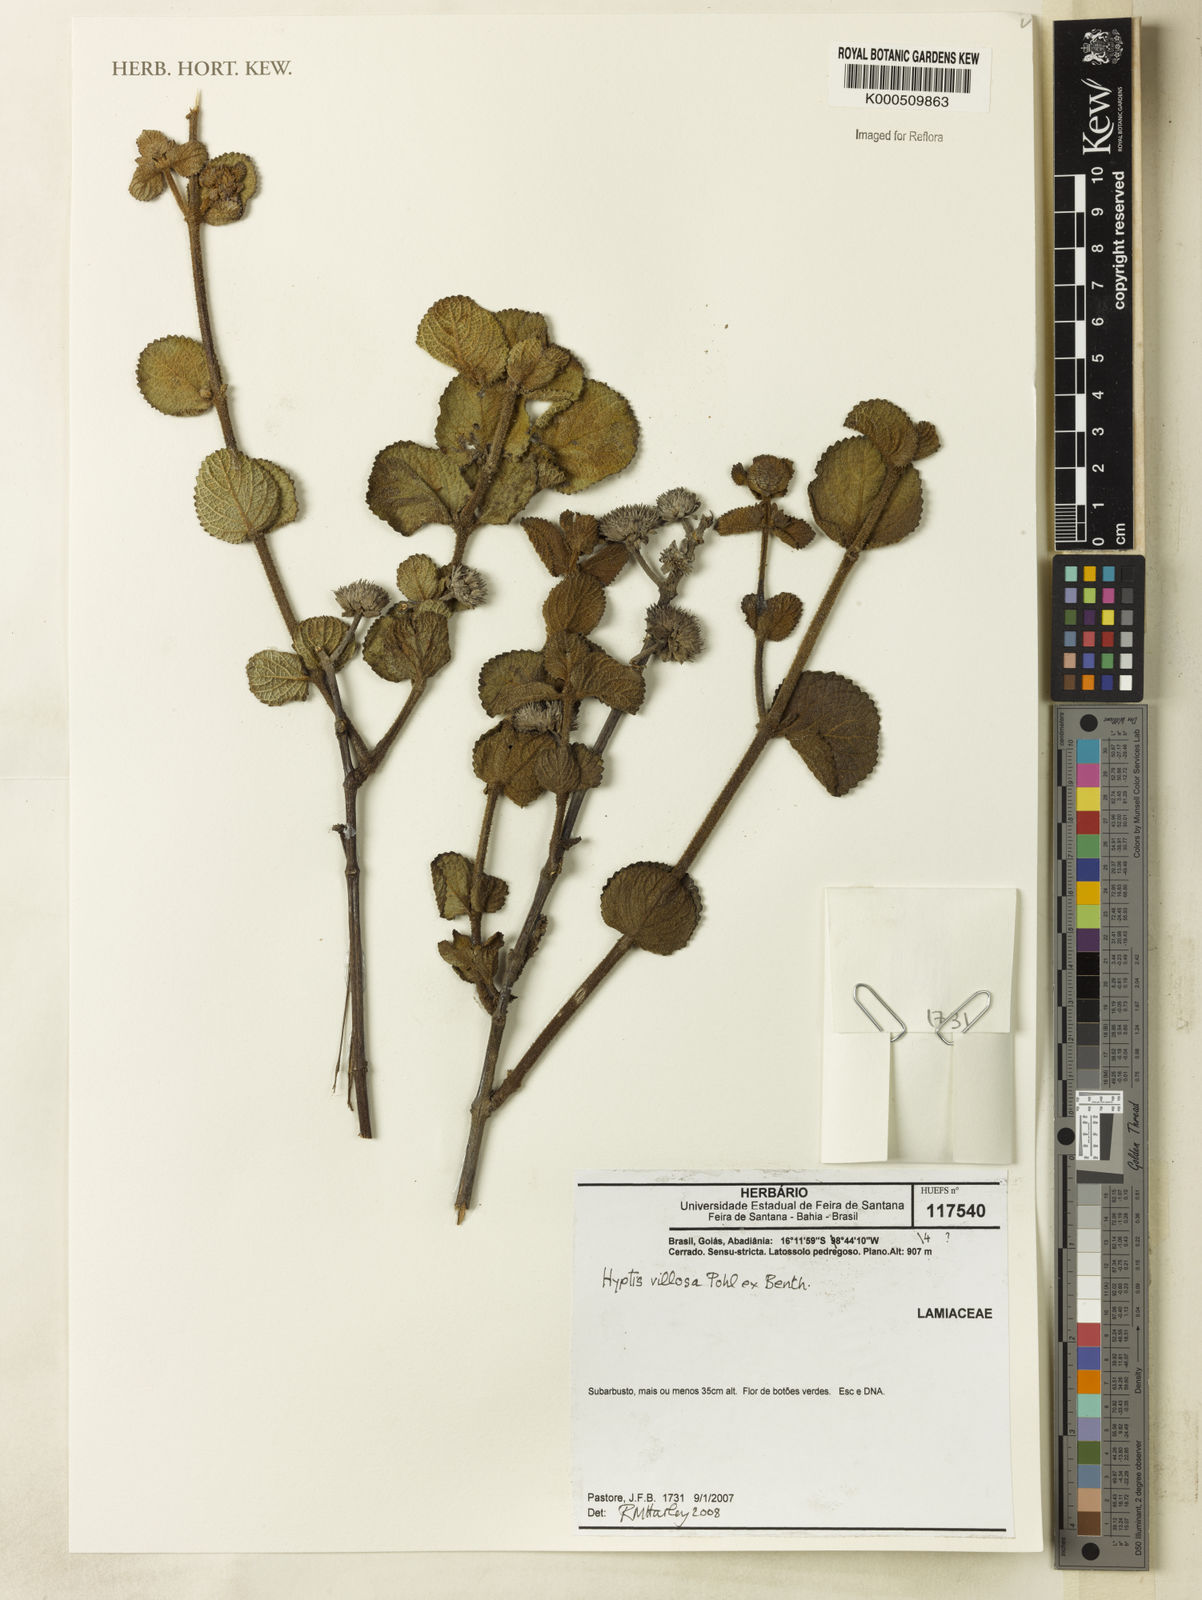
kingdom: Plantae
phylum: Tracheophyta
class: Magnoliopsida
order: Lamiales
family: Lamiaceae
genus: Hyptis
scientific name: Hyptis villosa
